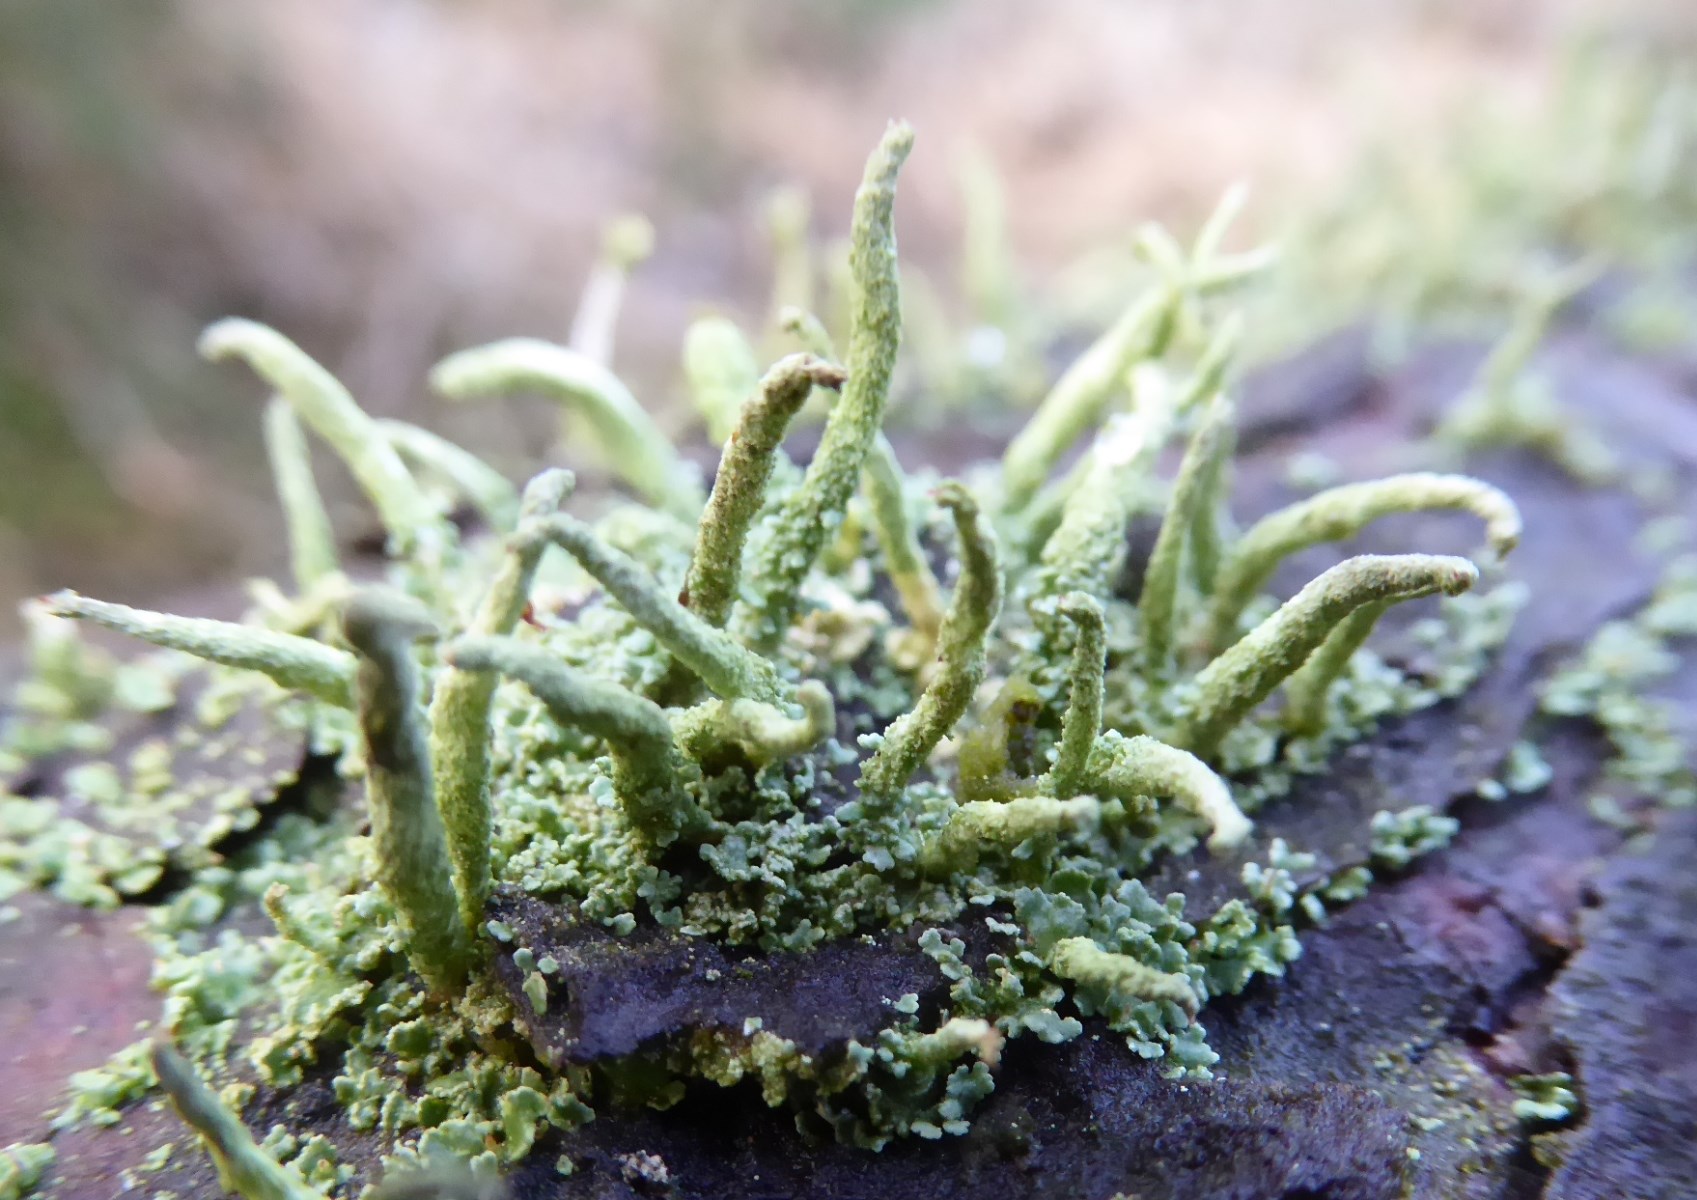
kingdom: Fungi
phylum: Ascomycota
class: Lecanoromycetes
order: Lecanorales
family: Cladoniaceae
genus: Cladonia
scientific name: Cladonia coniocraea
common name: træfods-bægerlav
